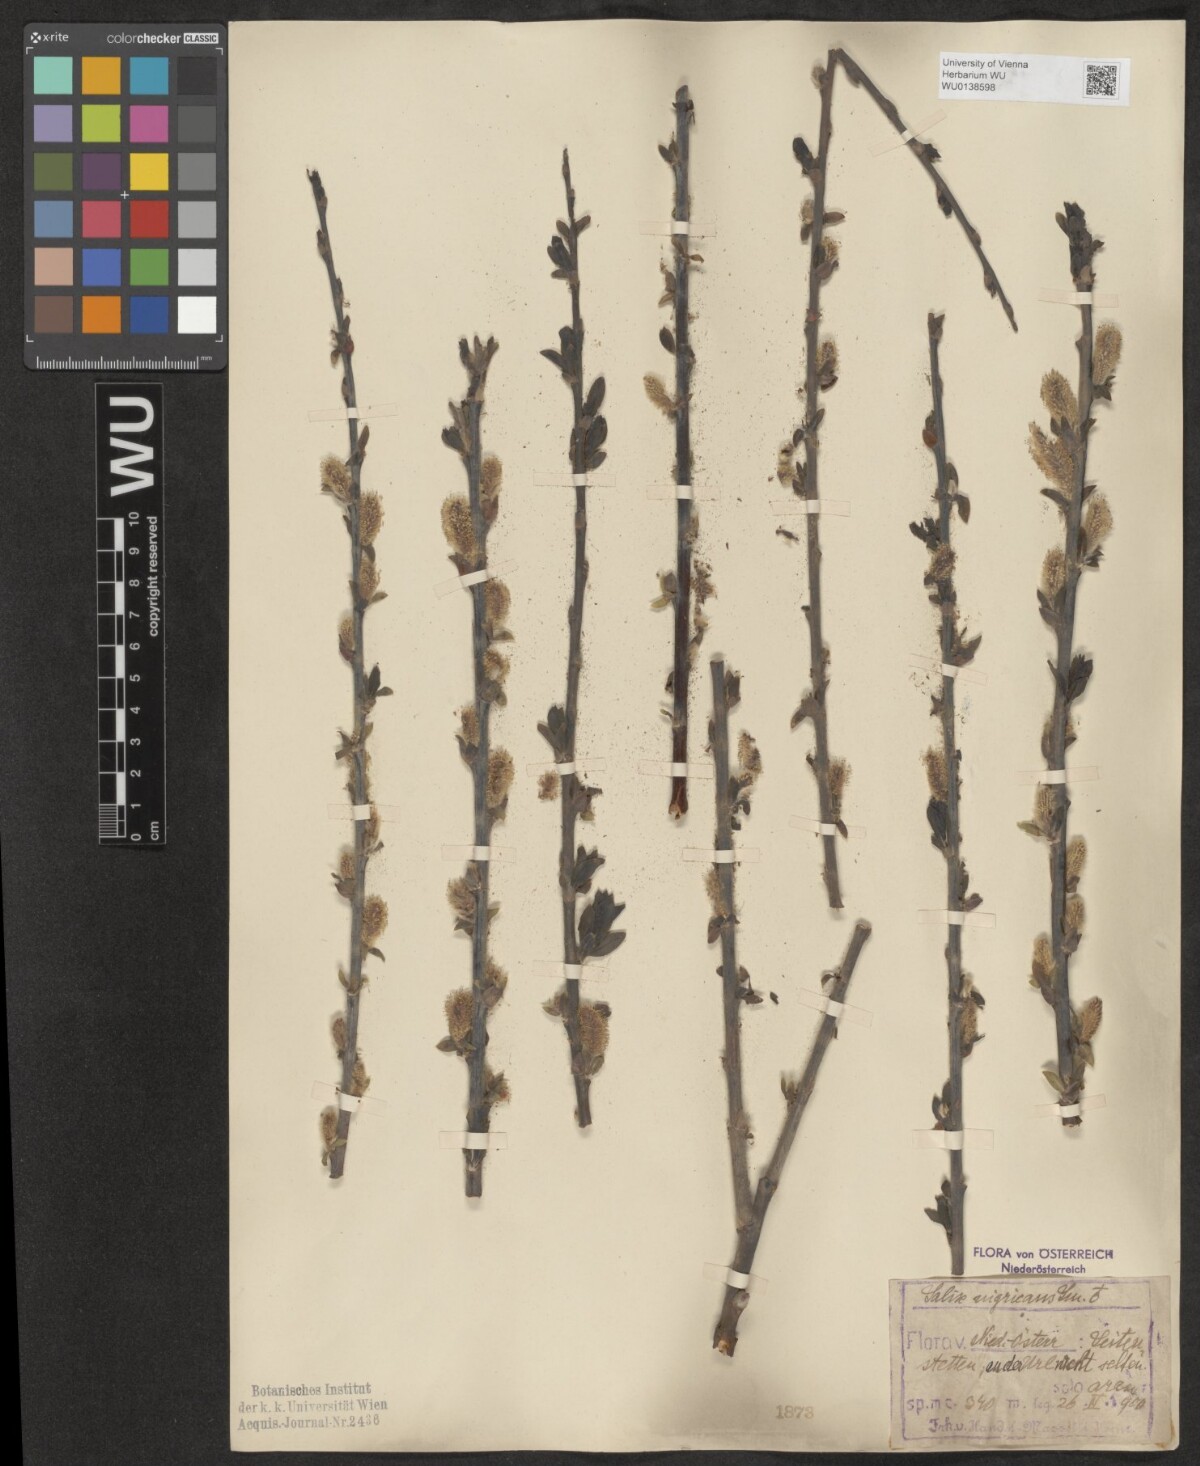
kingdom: Plantae
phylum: Tracheophyta
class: Magnoliopsida
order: Malpighiales
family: Salicaceae
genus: Salix
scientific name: Salix myrsinifolia
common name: Dark-leaved willow
